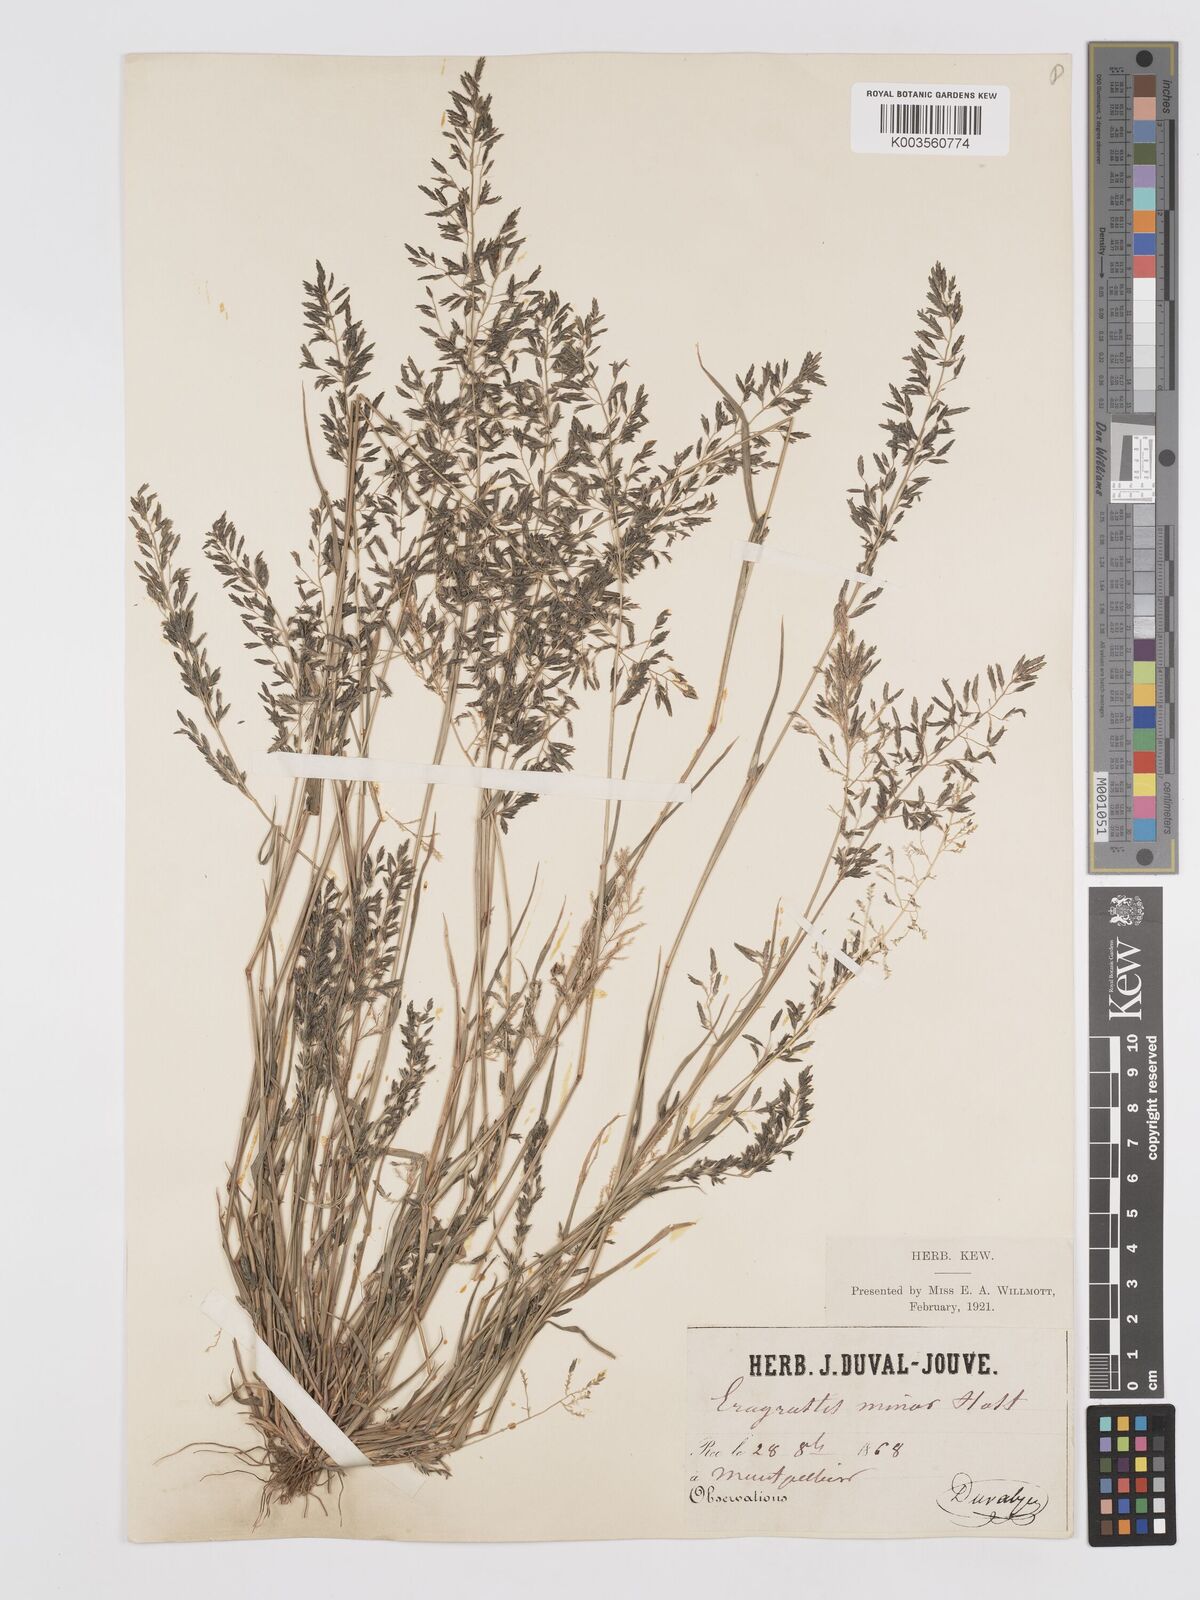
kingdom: Plantae
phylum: Tracheophyta
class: Liliopsida
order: Poales
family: Poaceae
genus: Eragrostis
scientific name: Eragrostis barrelieri
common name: Mediterranean lovegrass
